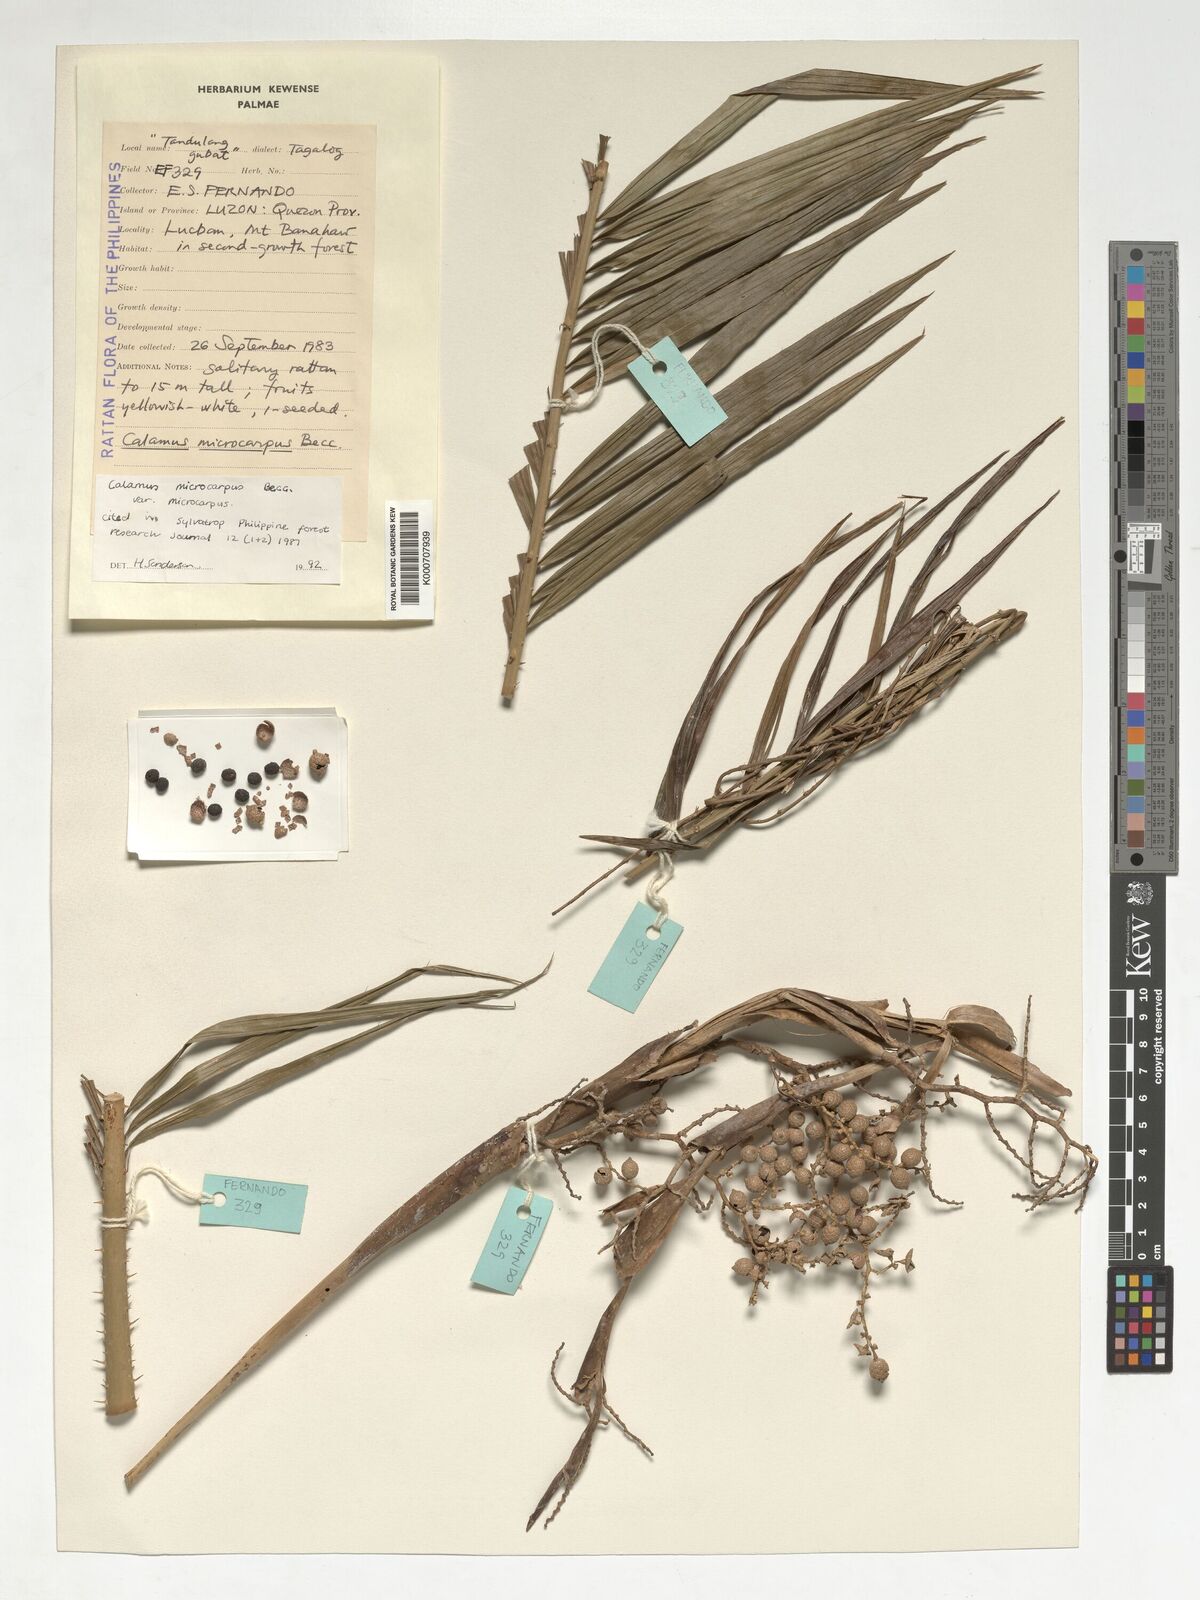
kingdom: Plantae
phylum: Tracheophyta
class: Liliopsida
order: Arecales
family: Arecaceae
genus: Calamus
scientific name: Calamus siphonospathus
